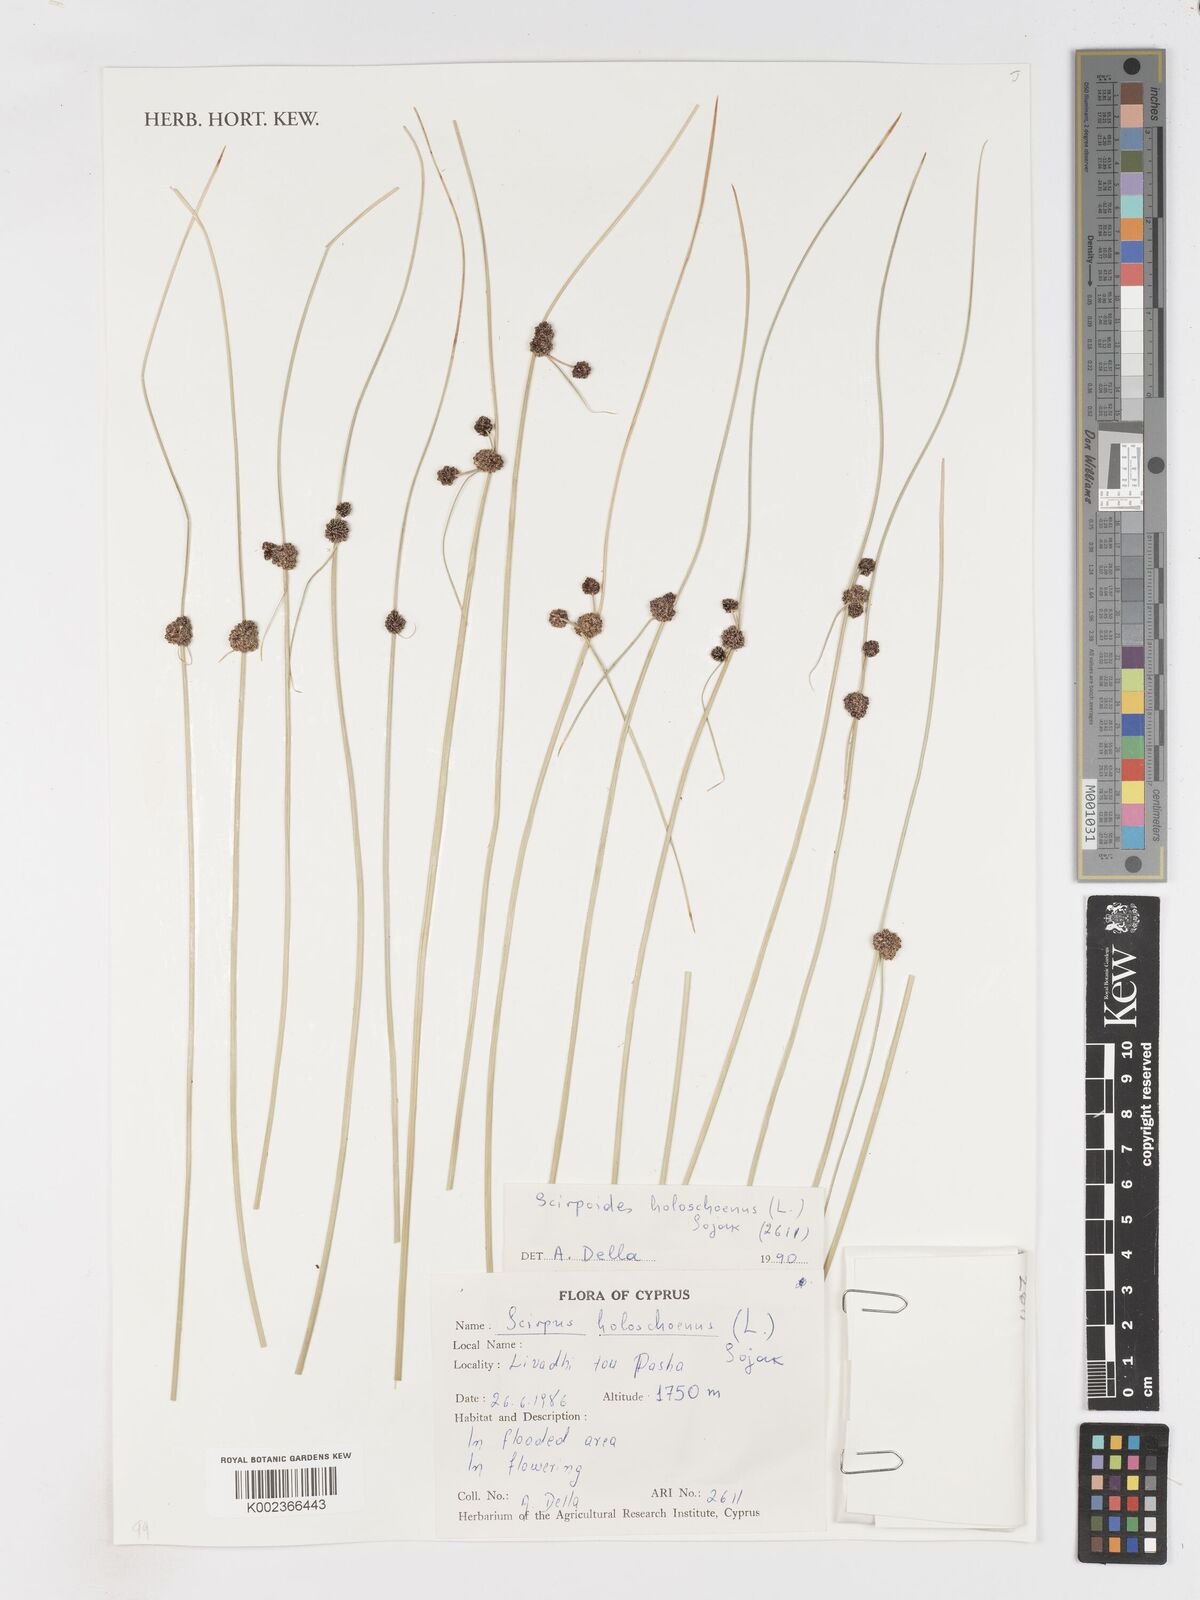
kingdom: Plantae
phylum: Tracheophyta
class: Liliopsida
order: Poales
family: Cyperaceae
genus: Scirpoides
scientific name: Scirpoides holoschoenus
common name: Round-headed club-rush
